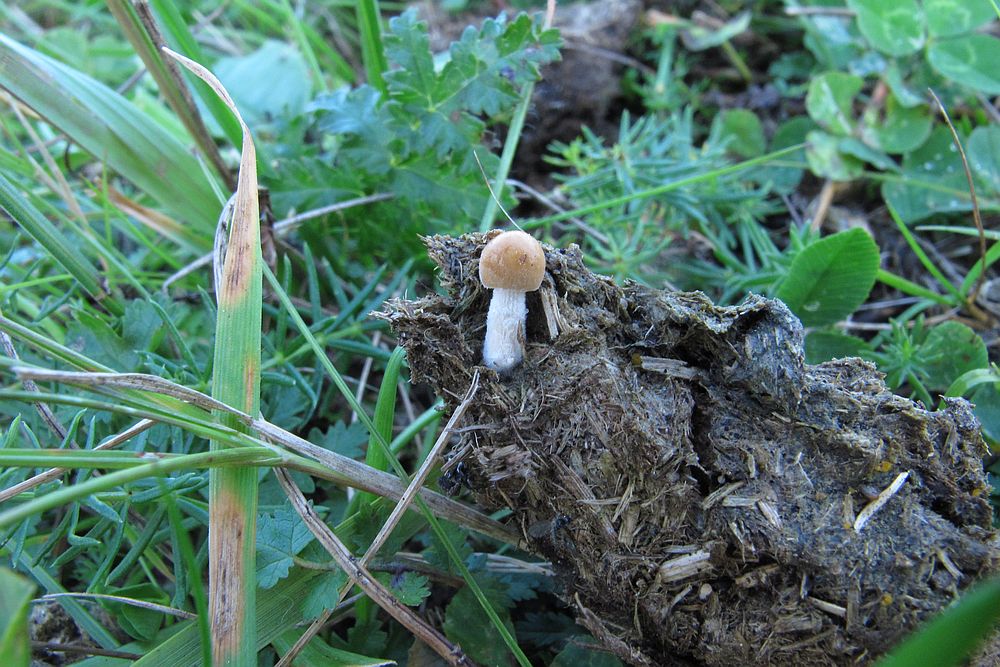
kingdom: Fungi
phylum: Basidiomycota
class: Agaricomycetes
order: Agaricales
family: Bolbitiaceae
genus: Conocybe
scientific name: Conocybe fuscimarginata
